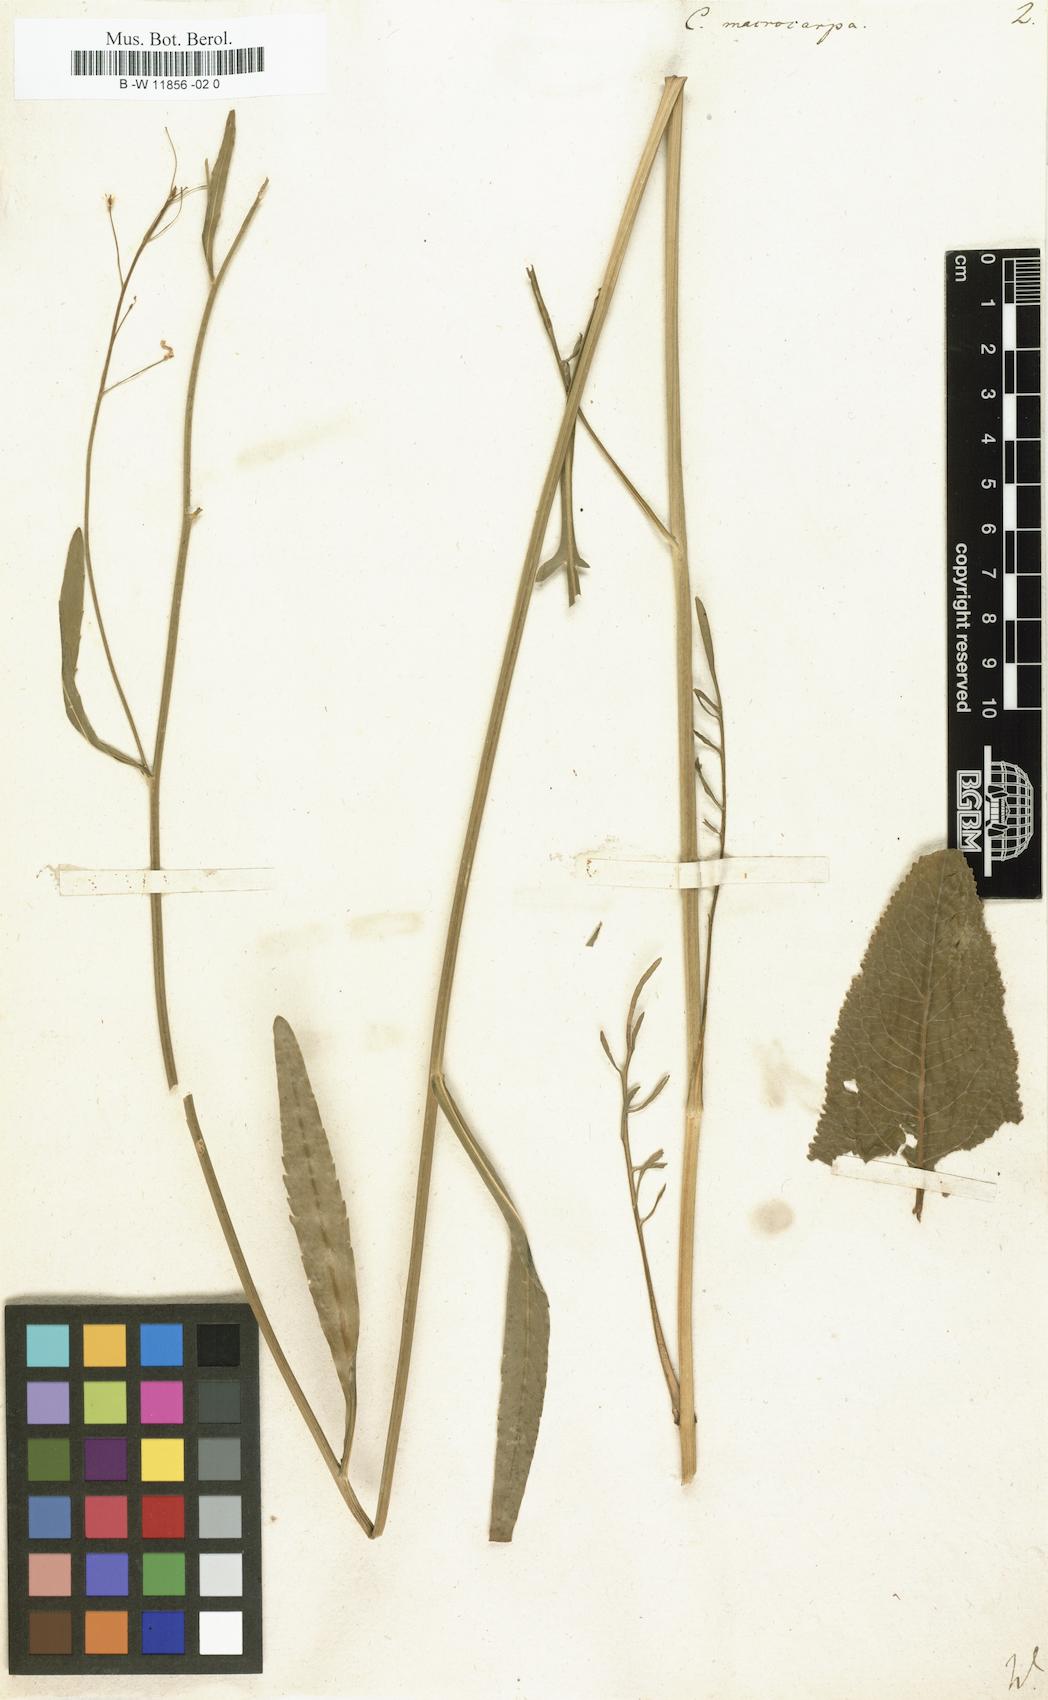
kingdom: Plantae
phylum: Tracheophyta
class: Magnoliopsida
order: Brassicales
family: Brassicaceae
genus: Armoracia
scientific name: Armoracia macrocarpa
